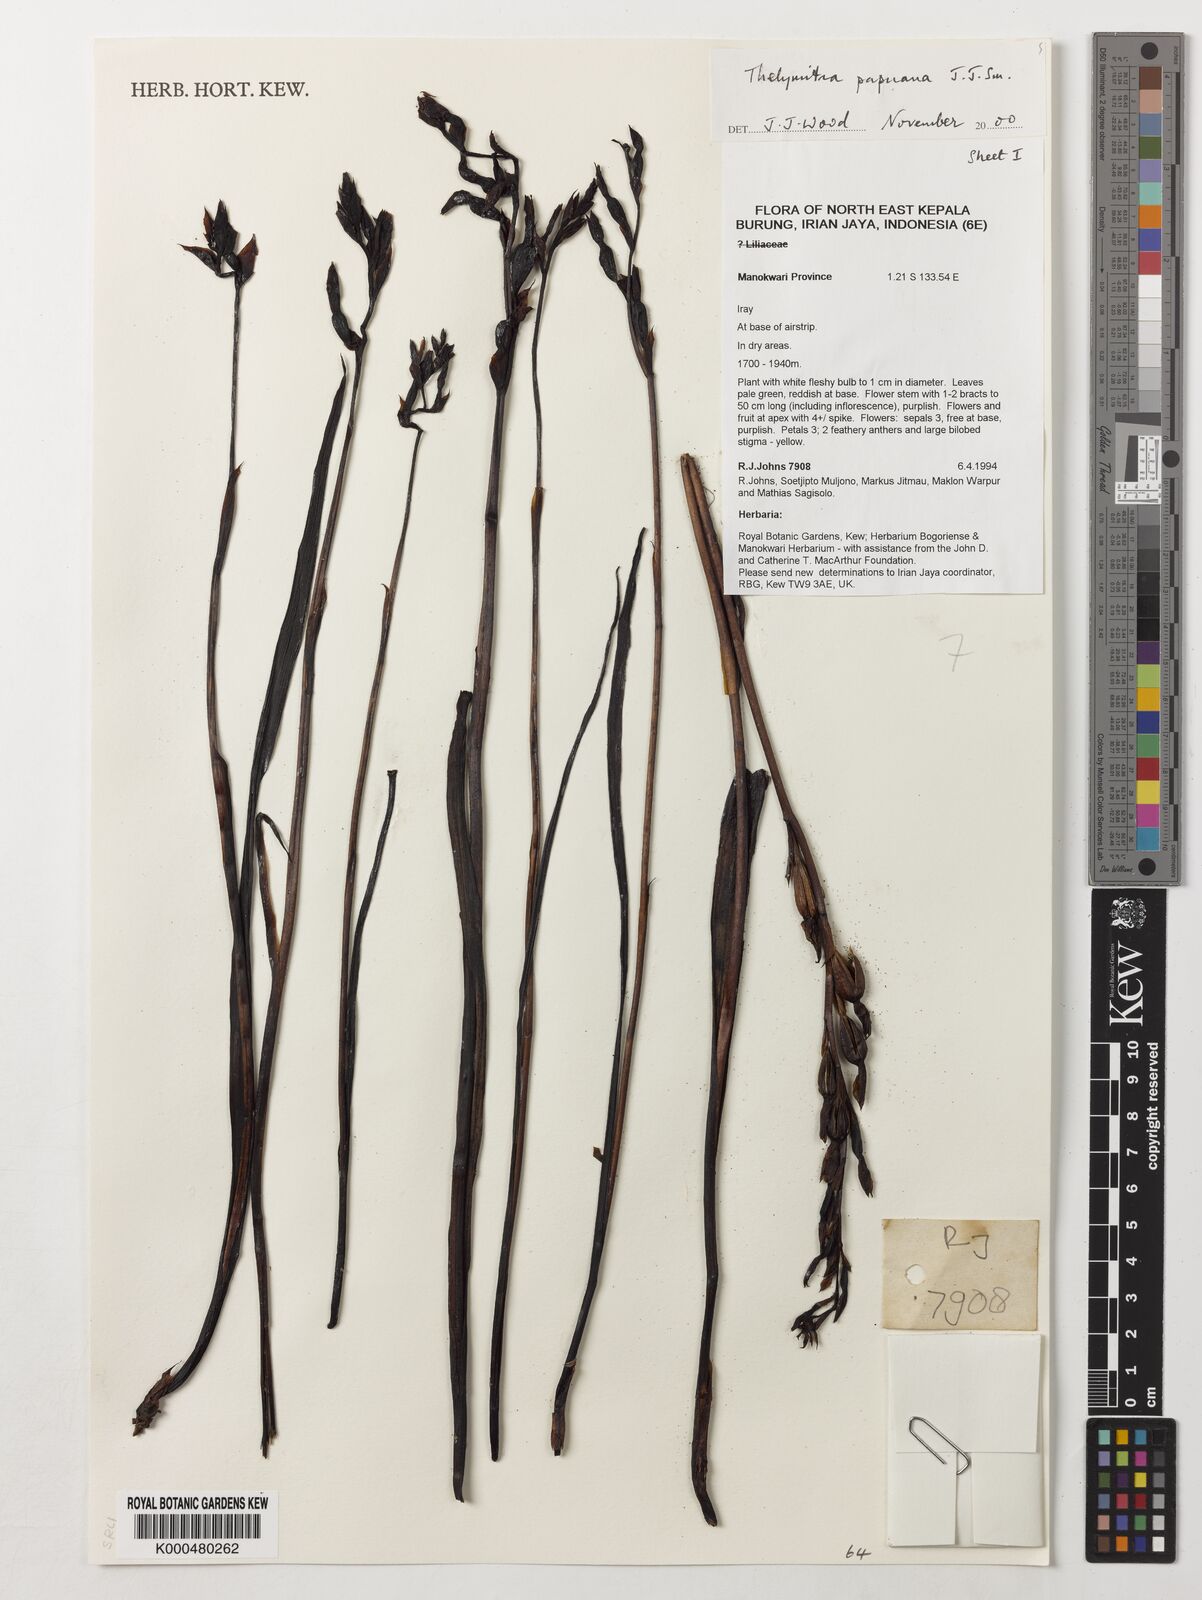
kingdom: Plantae
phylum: Tracheophyta
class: Liliopsida
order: Asparagales
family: Orchidaceae
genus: Thelymitra
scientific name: Thelymitra papuana
